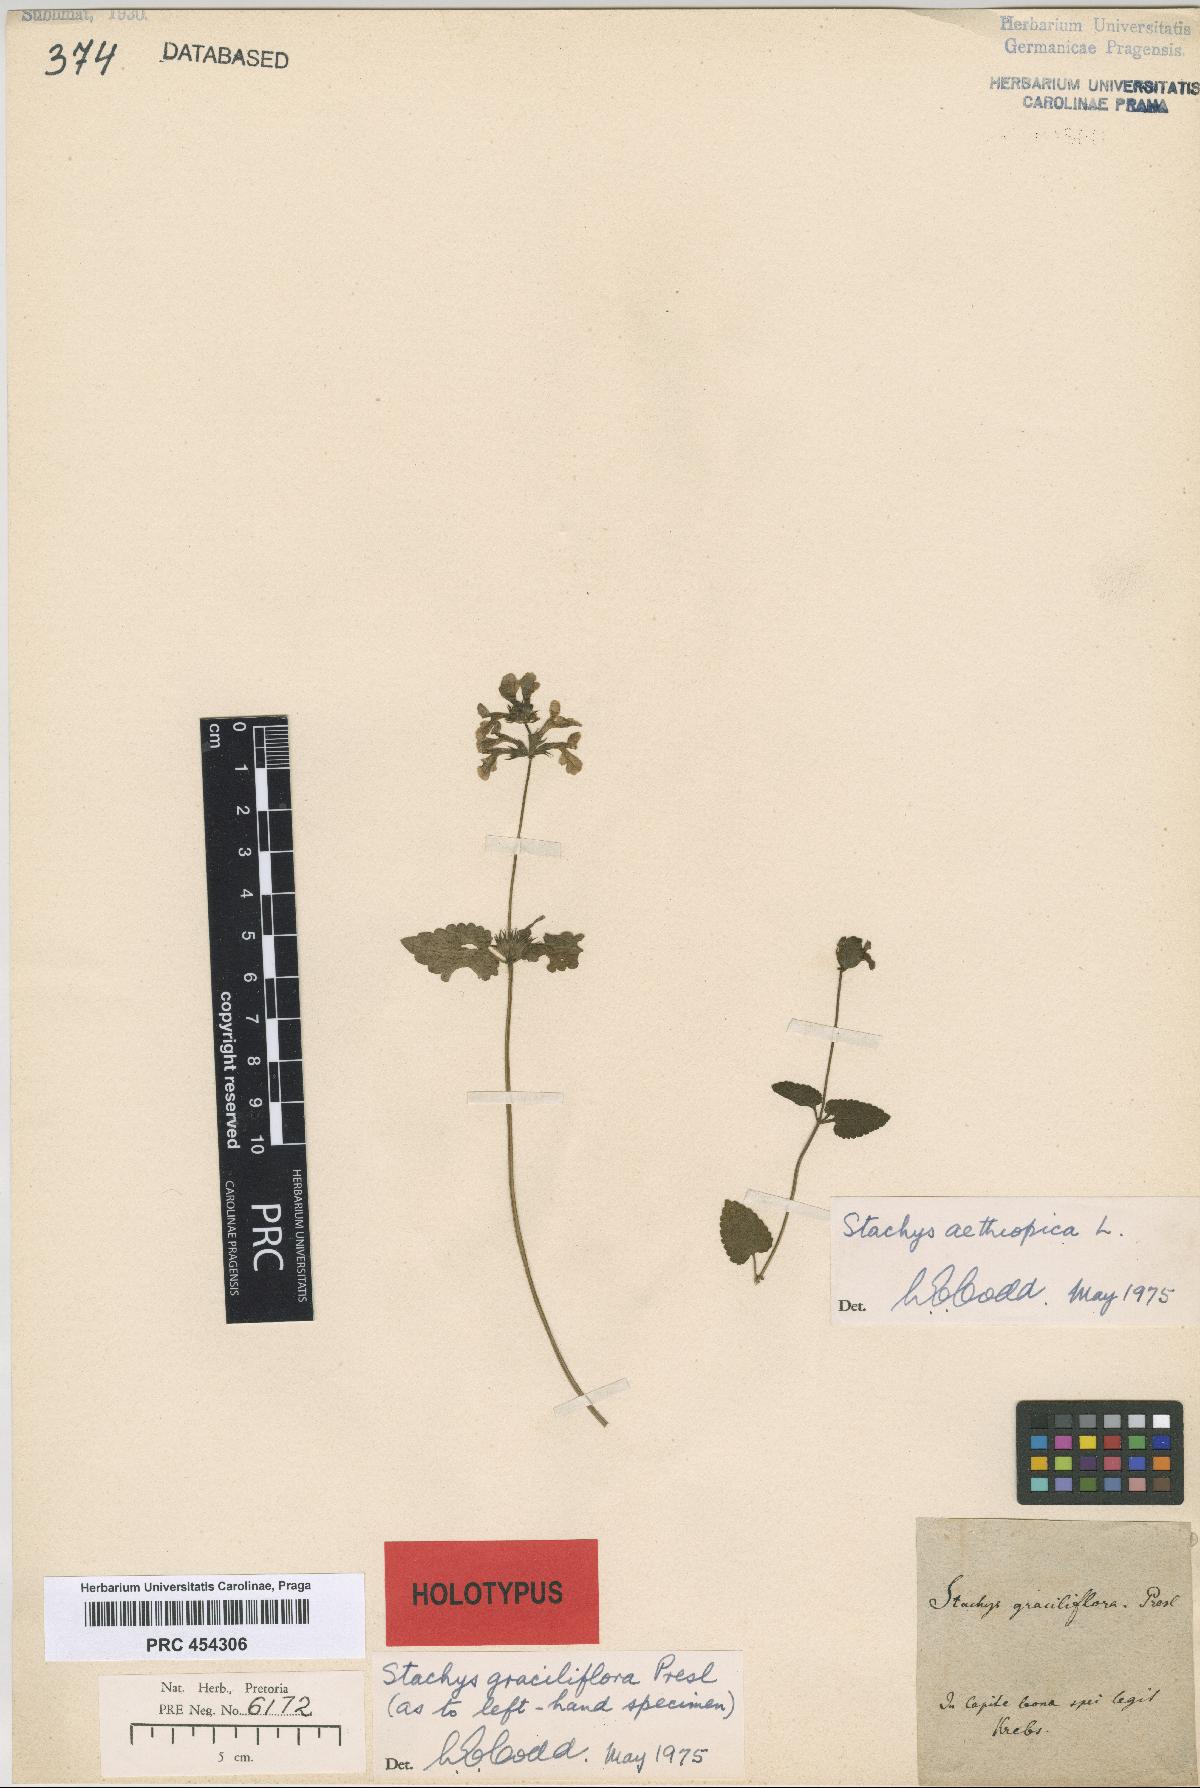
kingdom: Plantae
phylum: Tracheophyta
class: Magnoliopsida
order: Lamiales
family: Lamiaceae
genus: Stachys
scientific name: Stachys graciliflora
